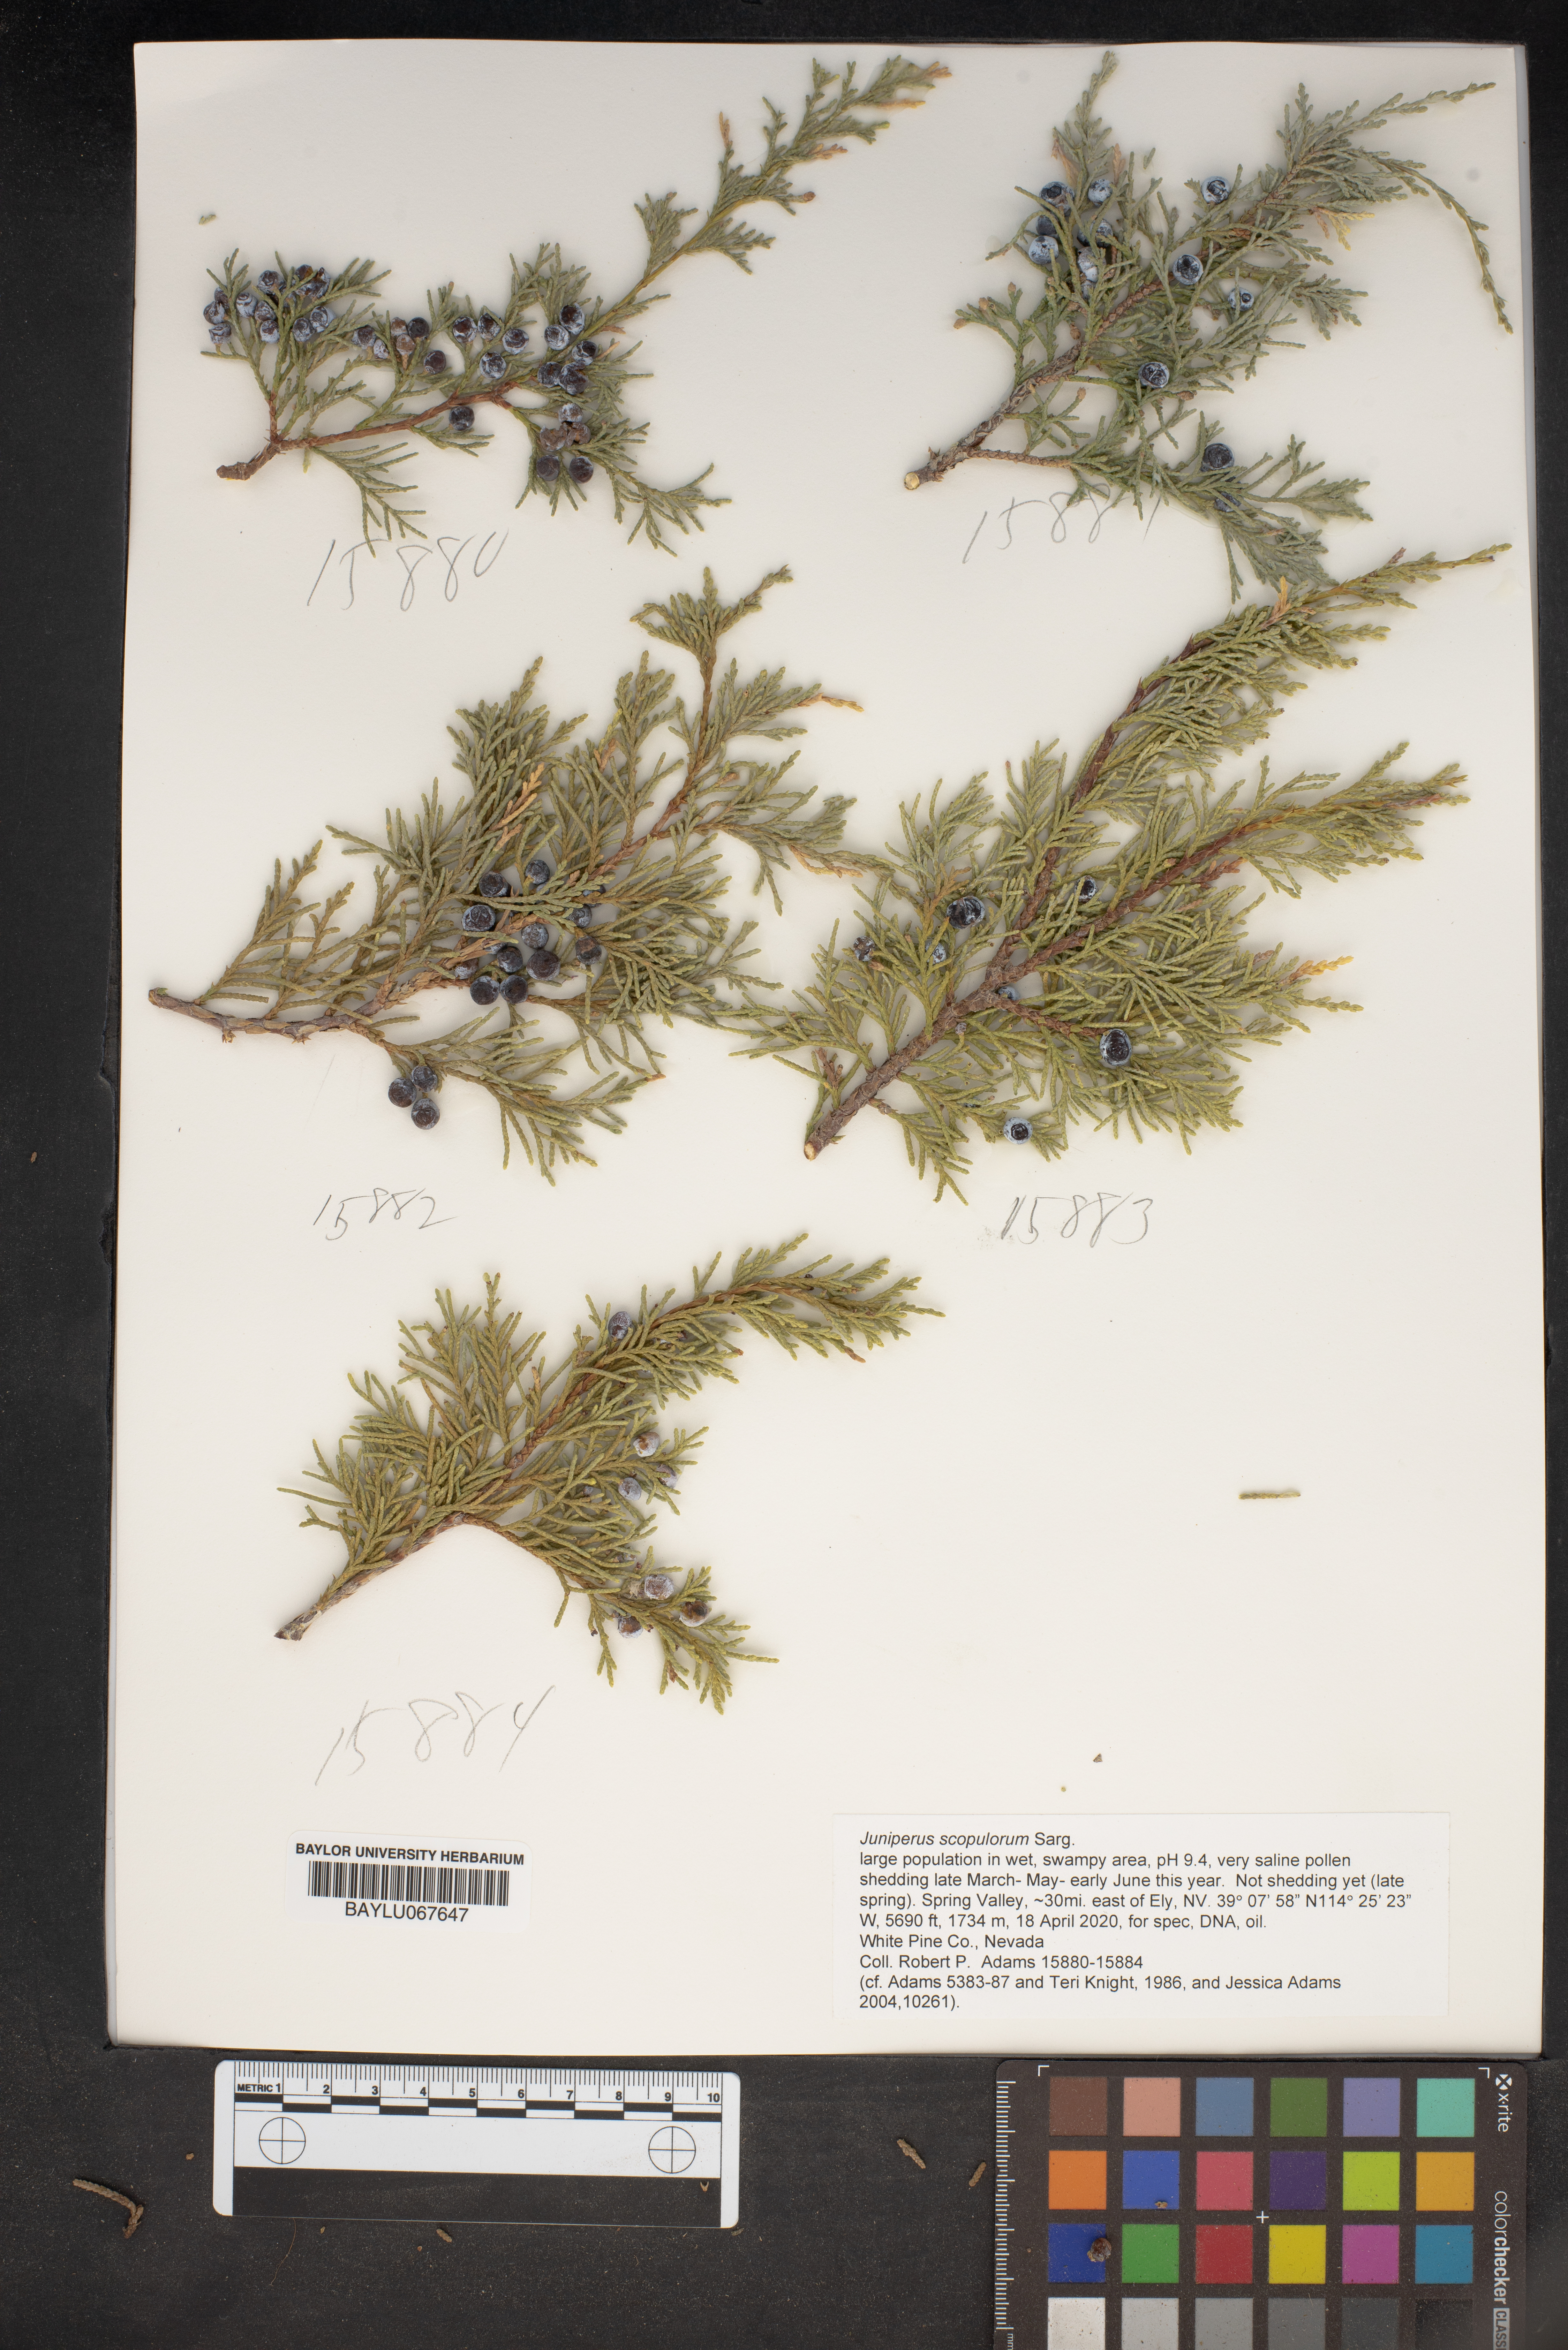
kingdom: Plantae
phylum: Tracheophyta
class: Pinopsida
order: Pinales
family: Cupressaceae
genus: Juniperus
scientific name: Juniperus scopulorum
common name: Rocky mountain juniper
